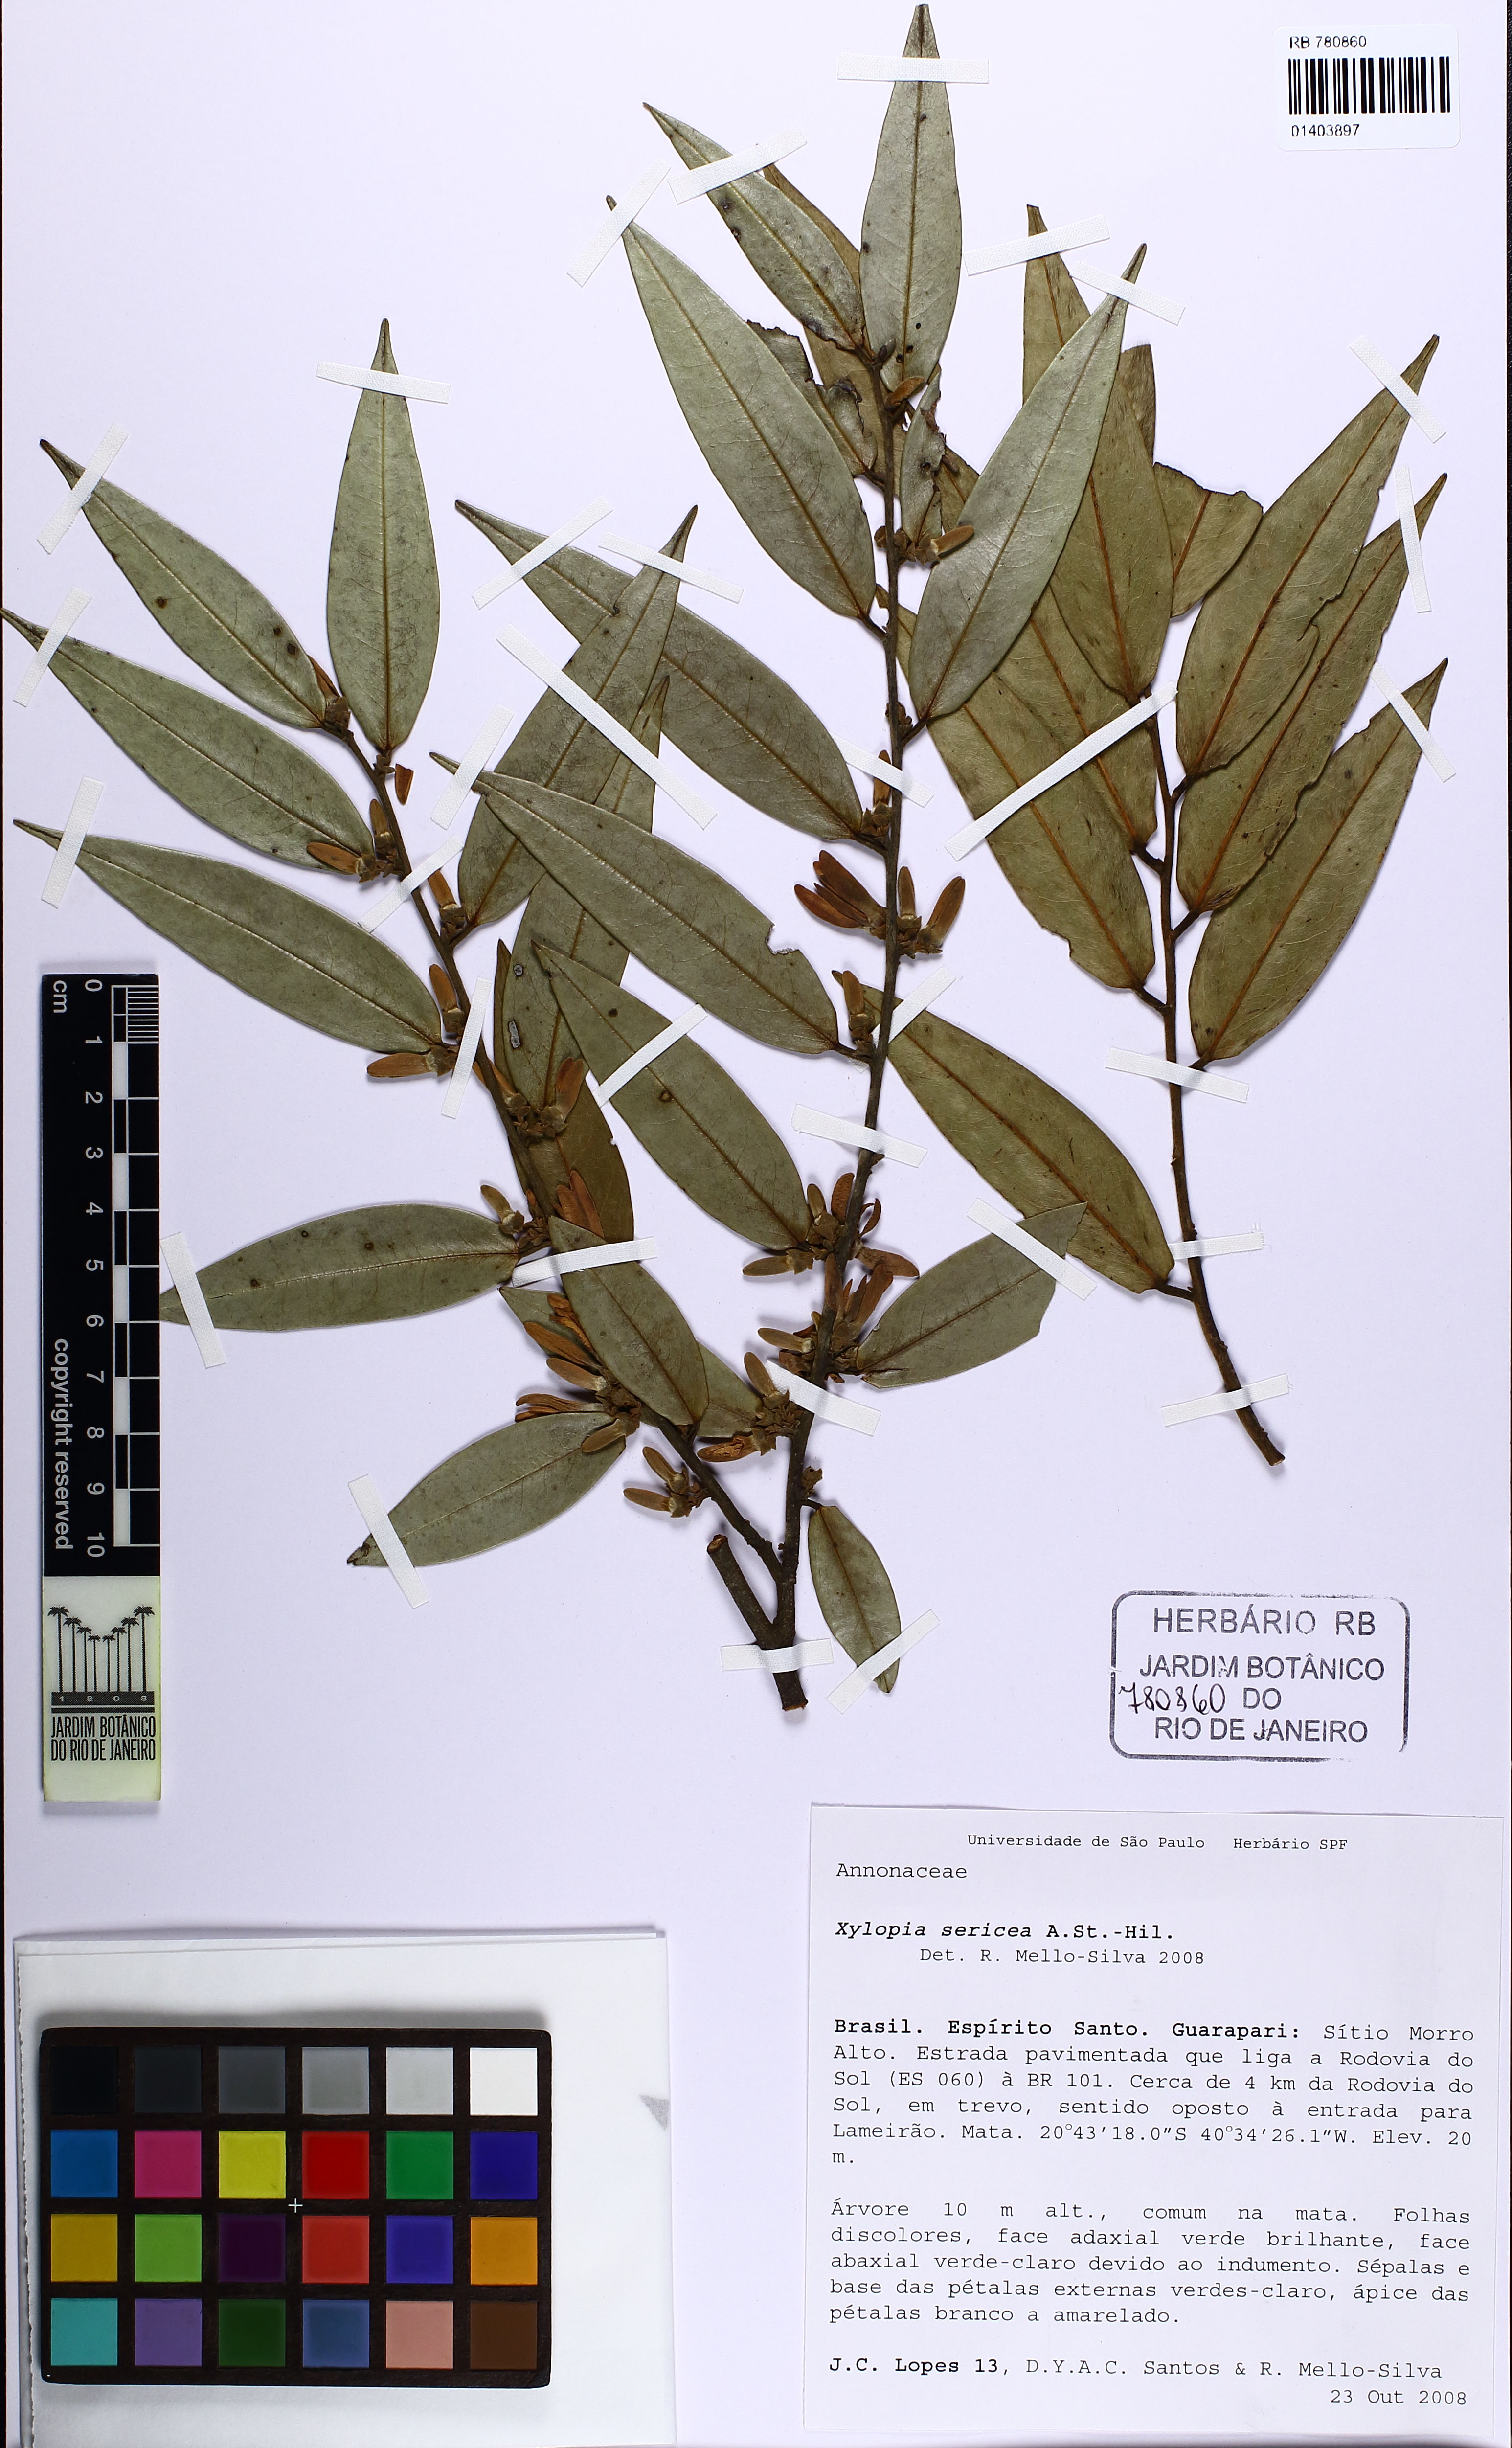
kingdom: Plantae
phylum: Tracheophyta
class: Magnoliopsida
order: Magnoliales
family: Annonaceae
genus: Xylopia
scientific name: Xylopia sericea
